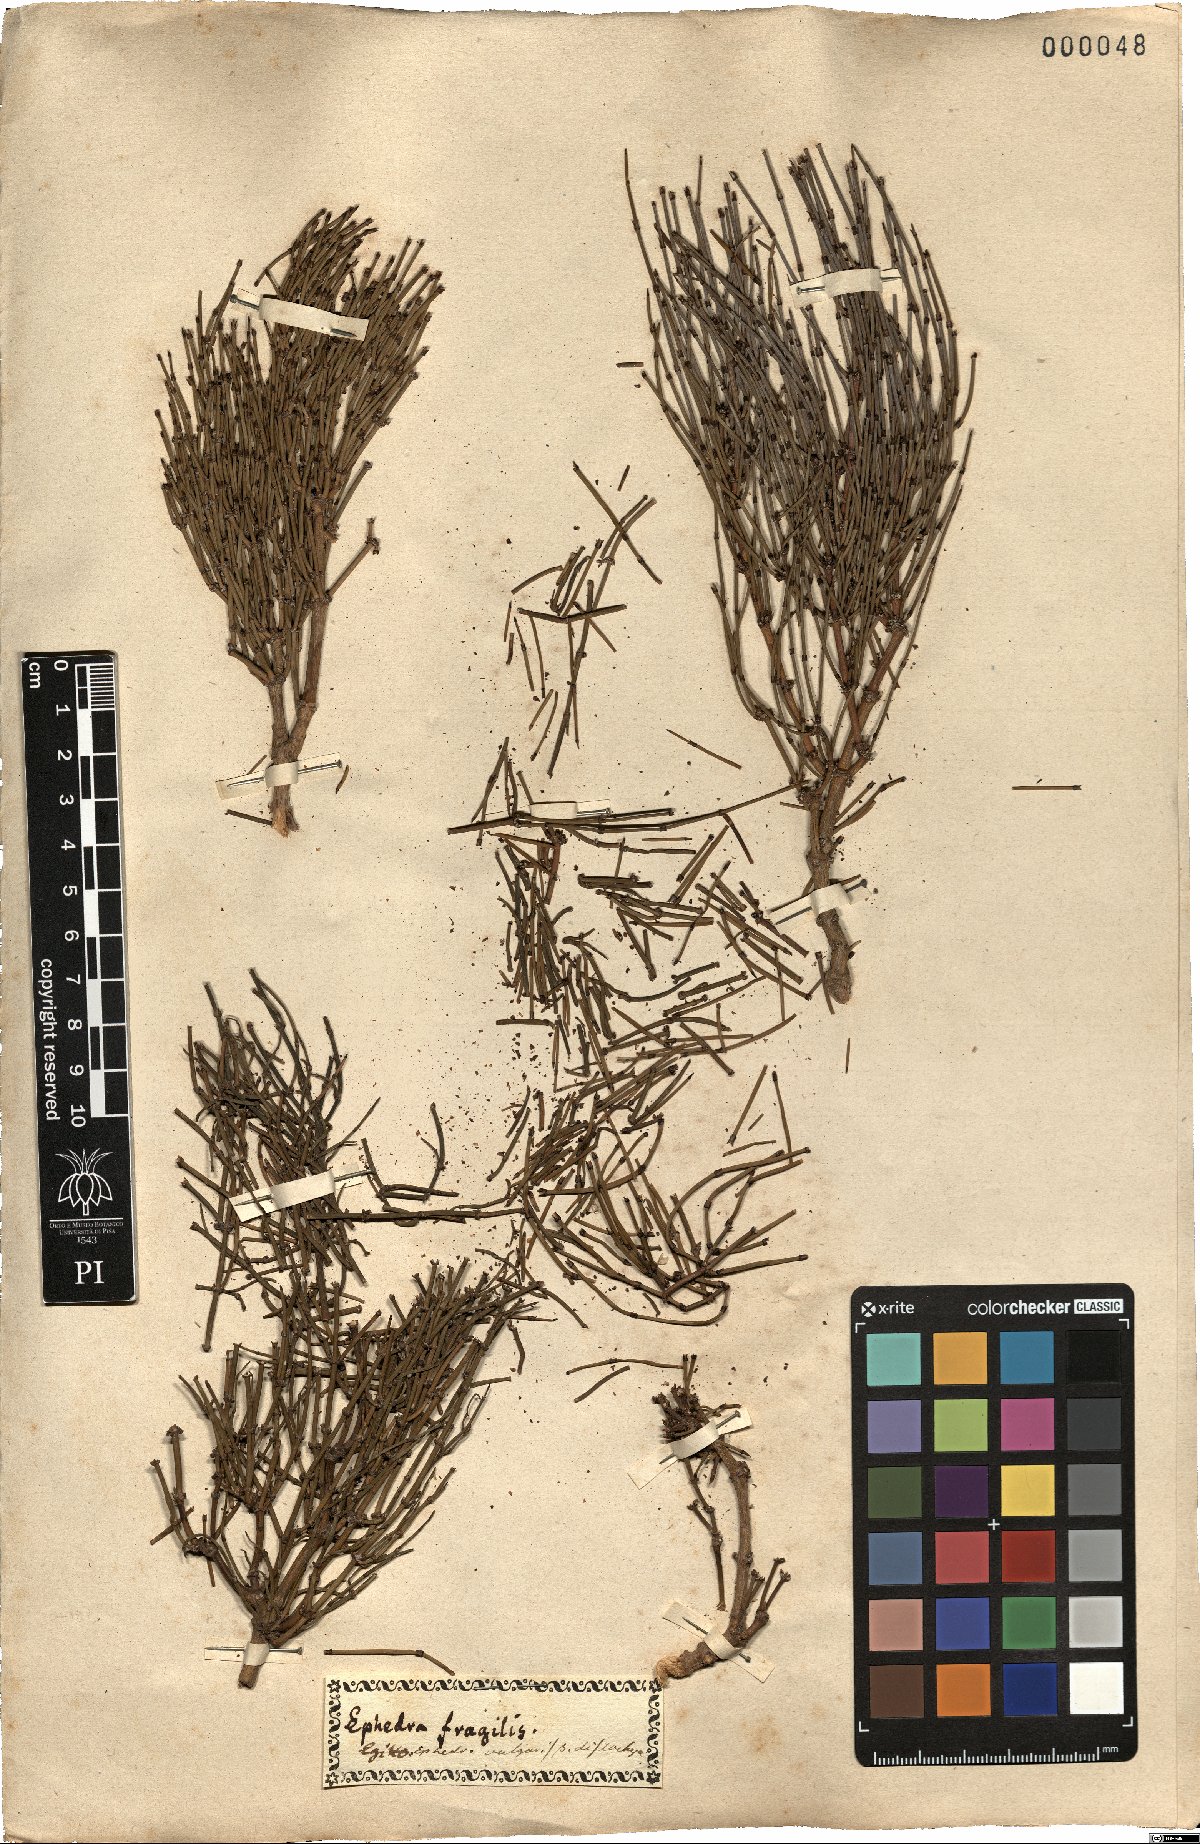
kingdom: Plantae
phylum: Tracheophyta
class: Gnetopsida
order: Ephedrales
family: Ephedraceae
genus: Ephedra
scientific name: Ephedra distachya
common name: Sea grape
